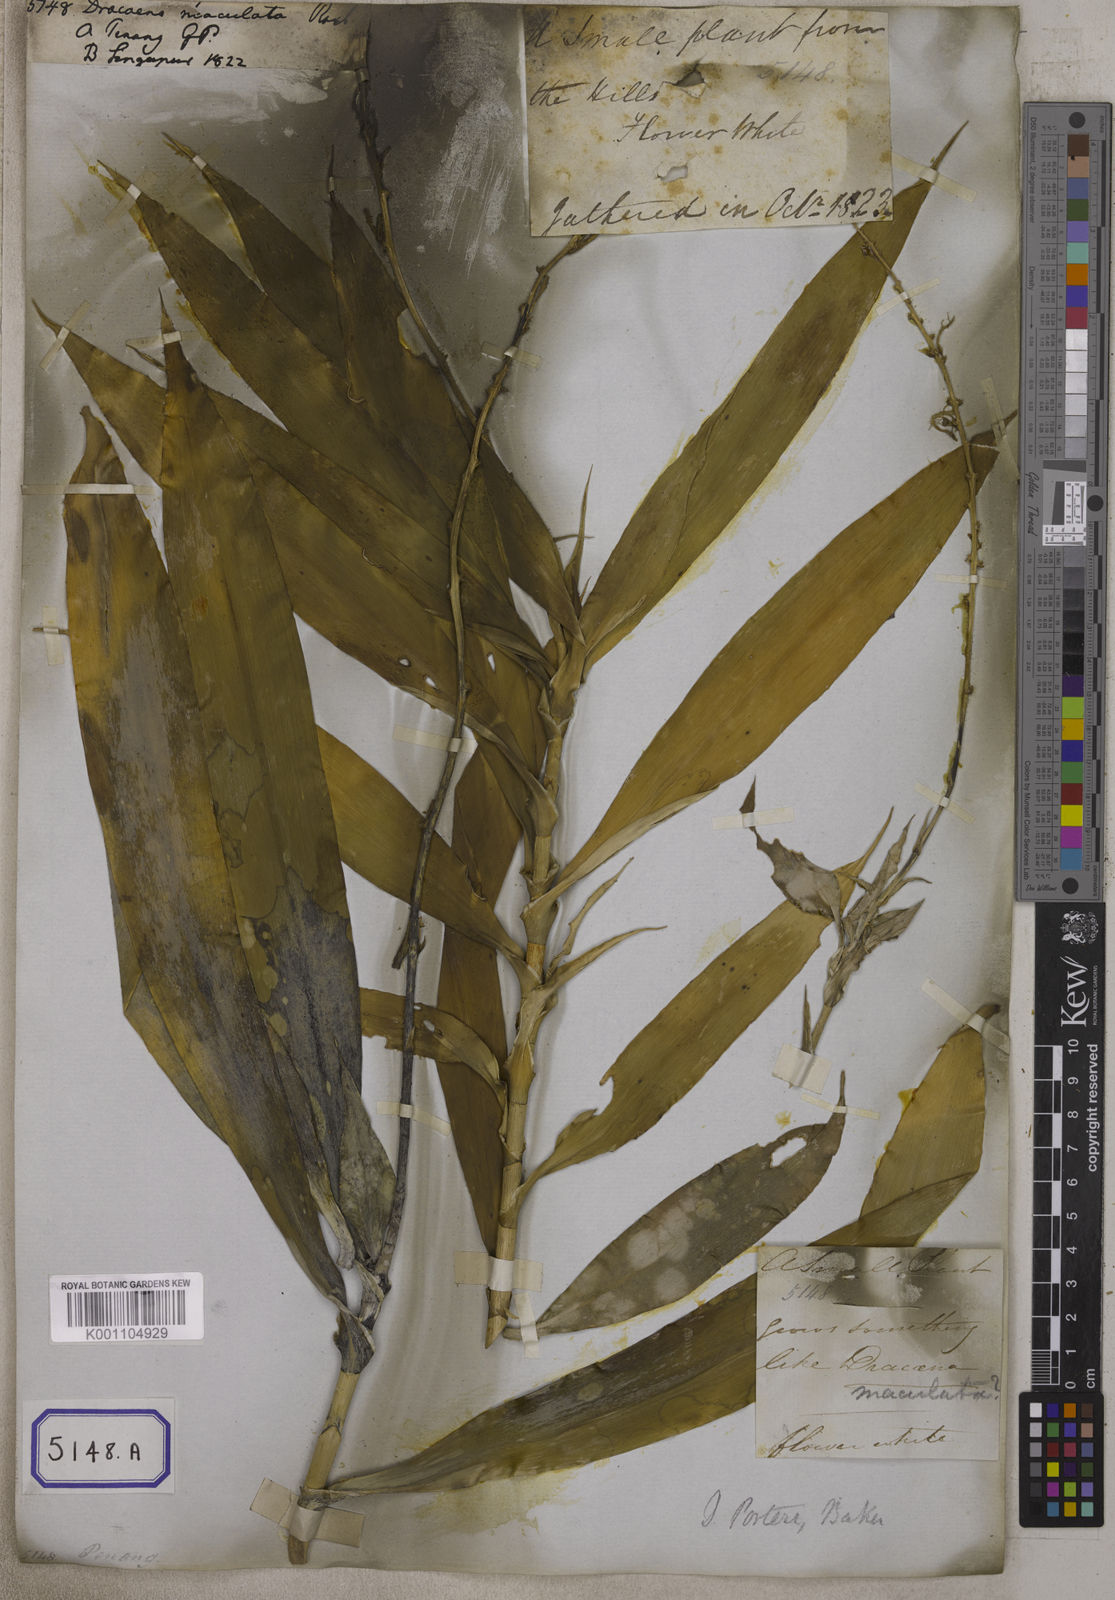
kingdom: Plantae
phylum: Tracheophyta
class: Liliopsida
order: Asparagales
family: Asparagaceae
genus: Dracaena
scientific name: Dracaena
